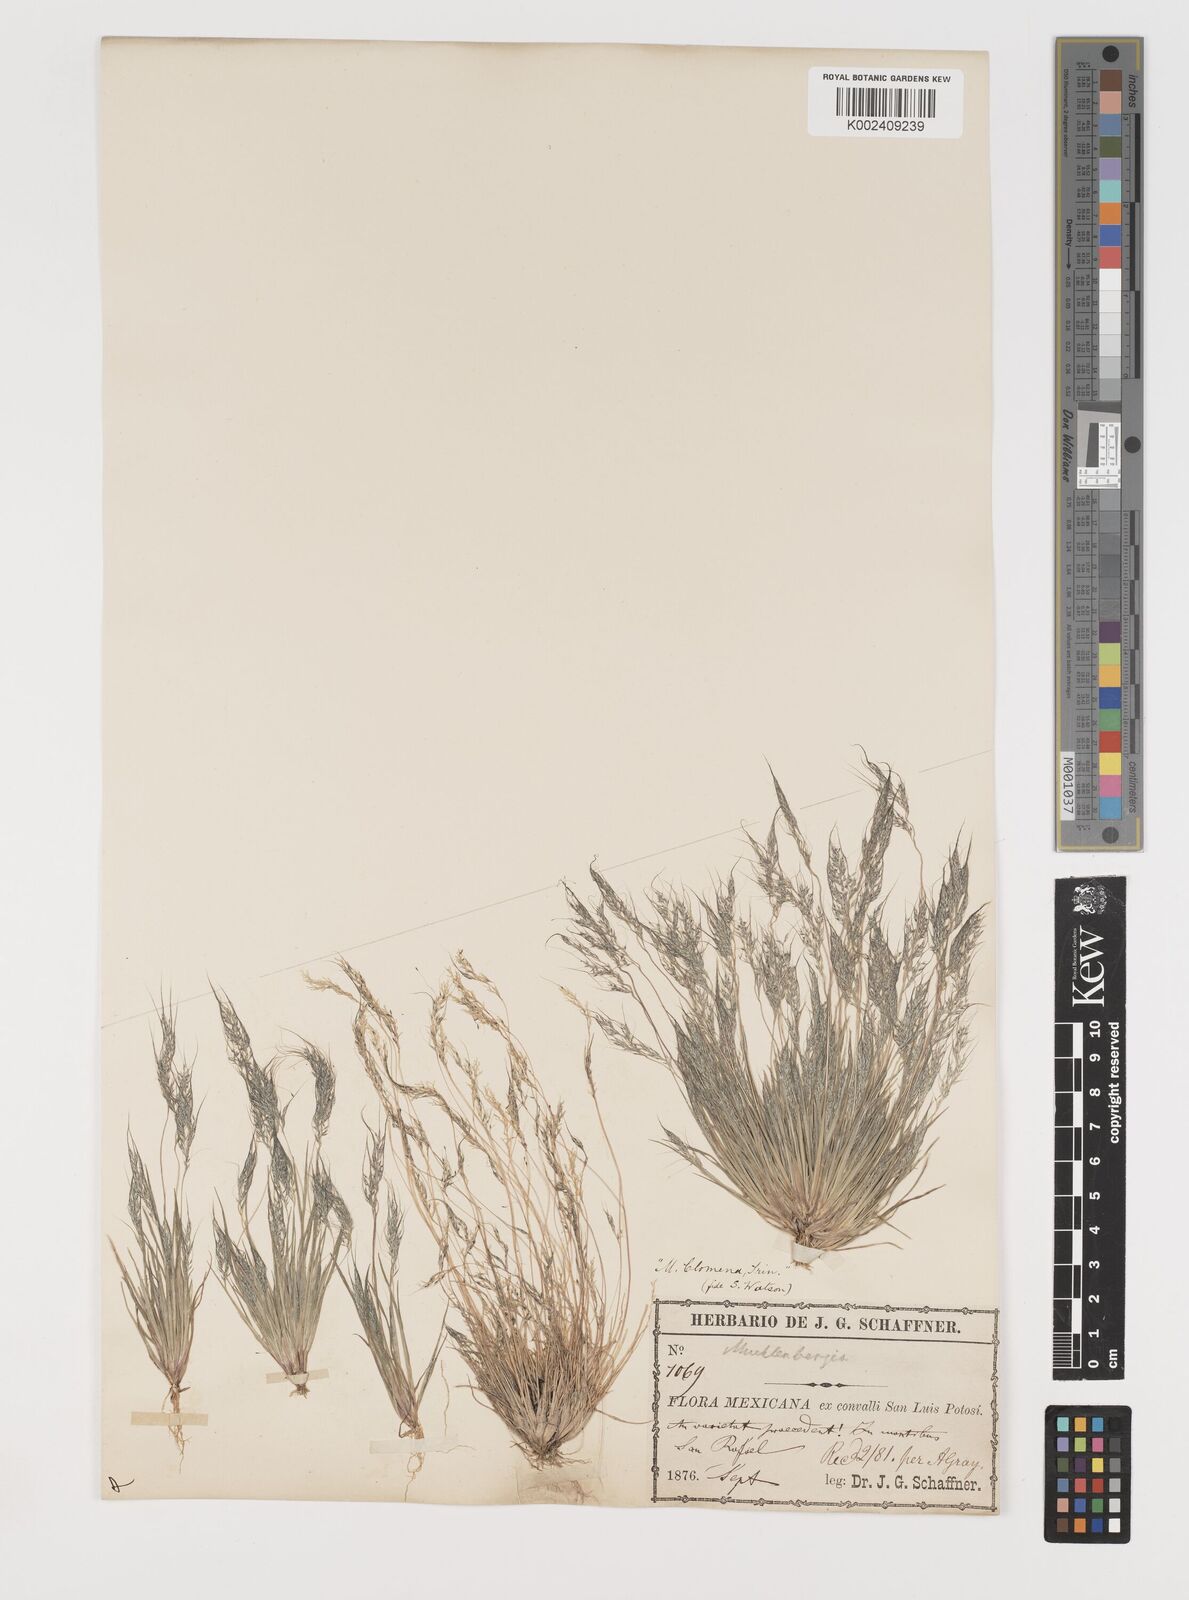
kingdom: Plantae
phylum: Tracheophyta
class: Liliopsida
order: Poales
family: Poaceae
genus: Muhlenbergia
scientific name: Muhlenbergia peruviana
